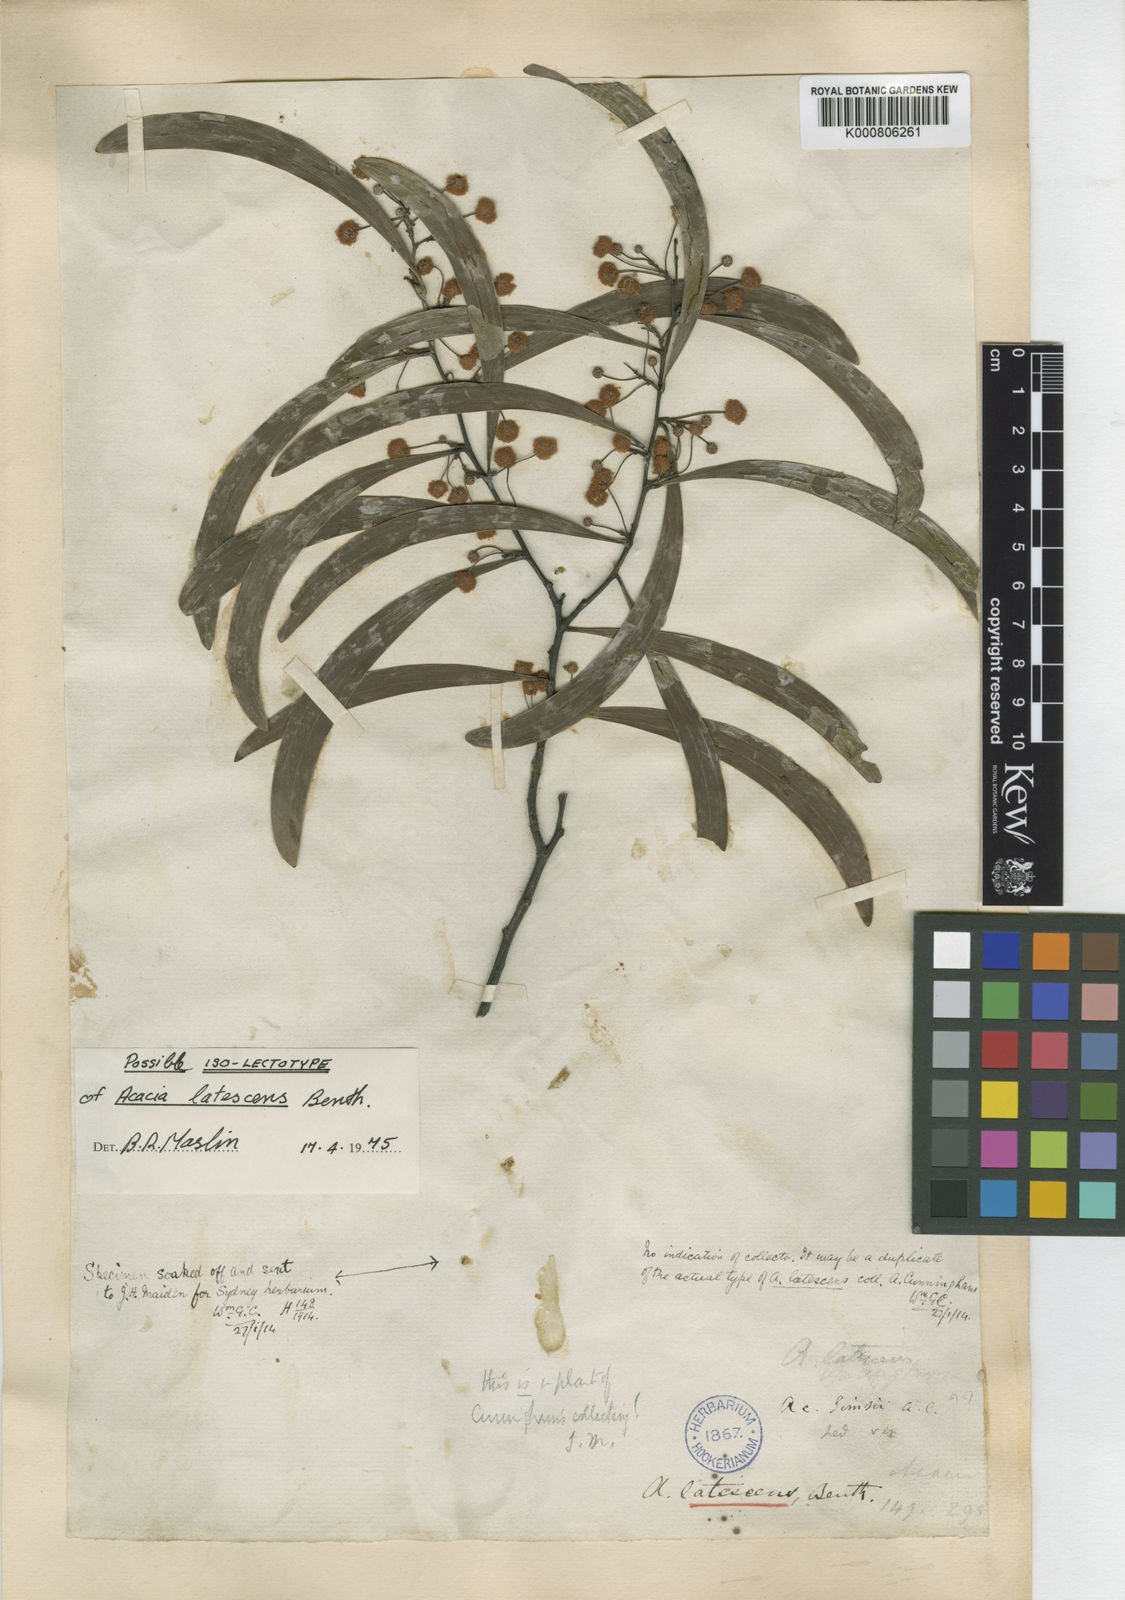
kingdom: Plantae
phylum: Tracheophyta
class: Magnoliopsida
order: Fabales
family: Fabaceae
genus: Acacia
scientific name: Acacia latescens
